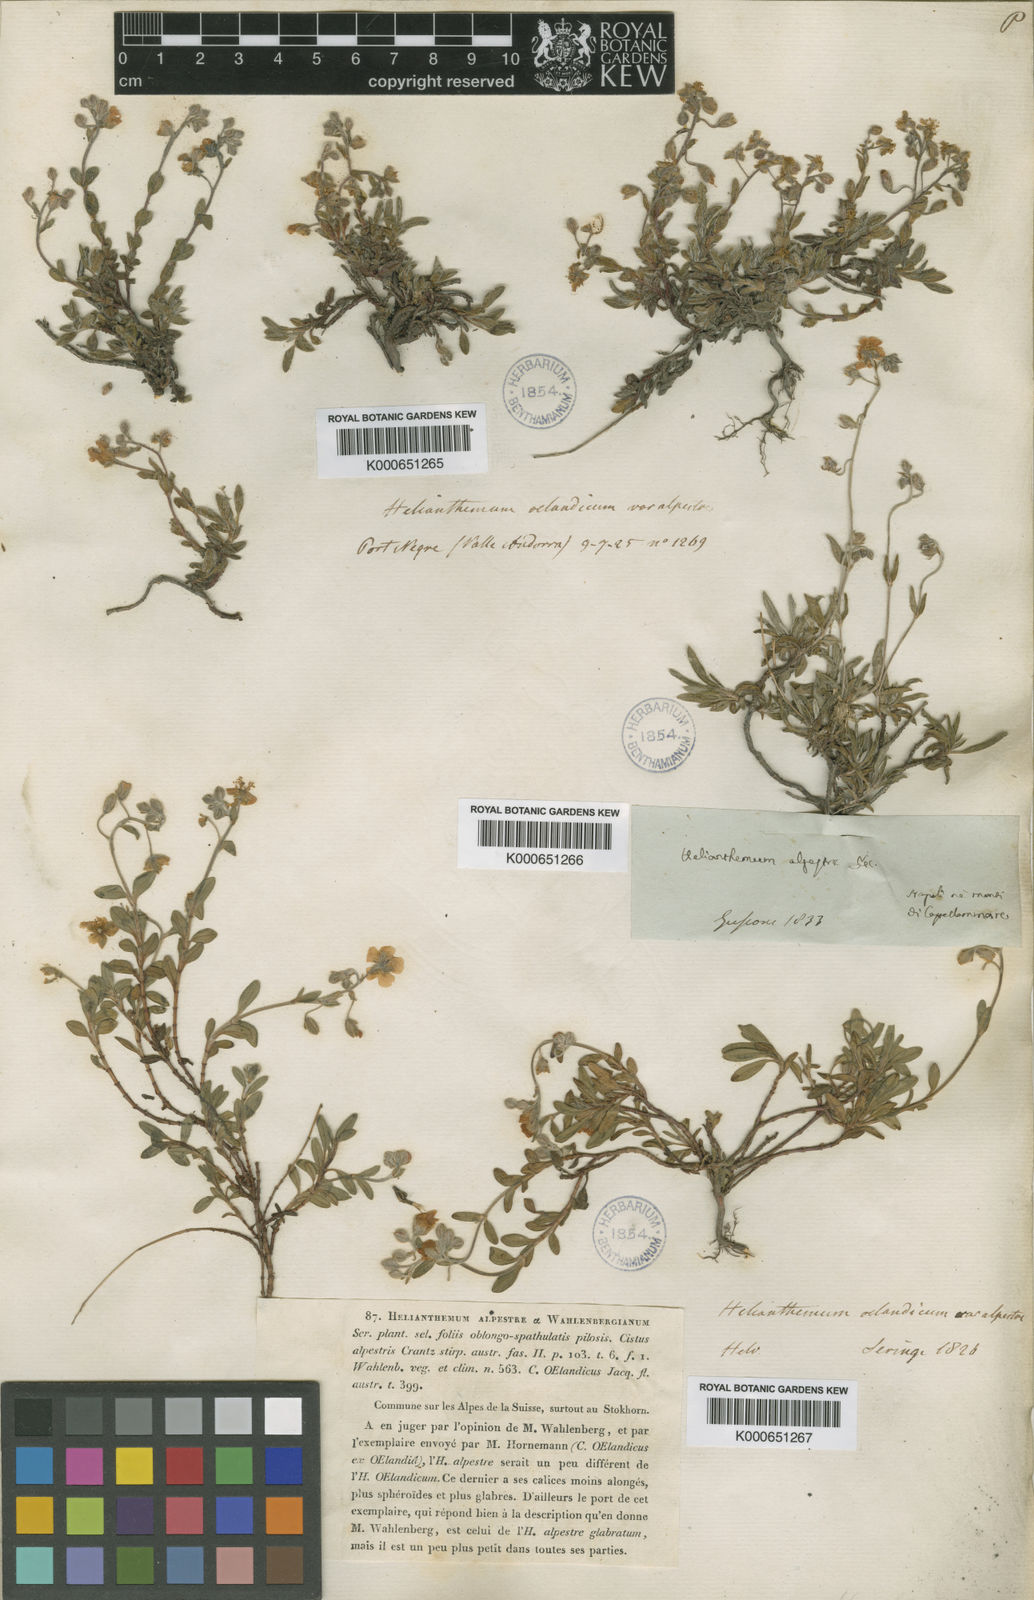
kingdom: Plantae
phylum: Tracheophyta
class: Magnoliopsida
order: Malvales
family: Cistaceae
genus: Helianthemum
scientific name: Helianthemum
